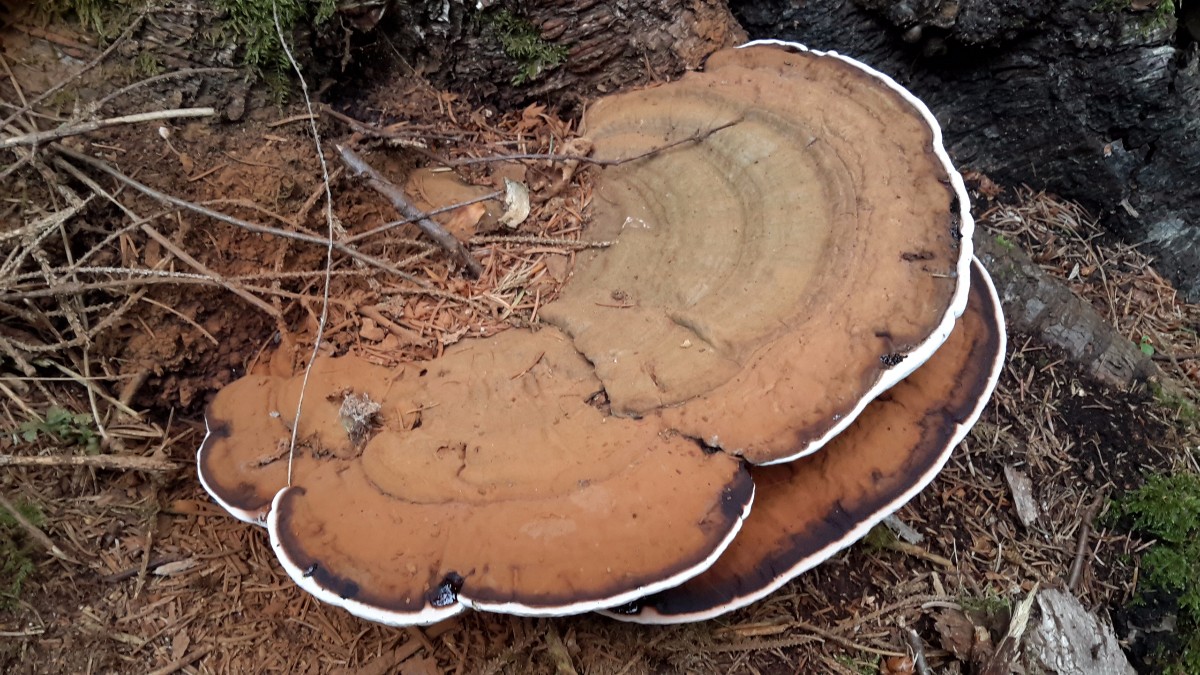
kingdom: Fungi
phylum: Basidiomycota
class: Agaricomycetes
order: Polyporales
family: Polyporaceae
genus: Ganoderma
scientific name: Ganoderma applanatum
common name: flad lakporesvamp
